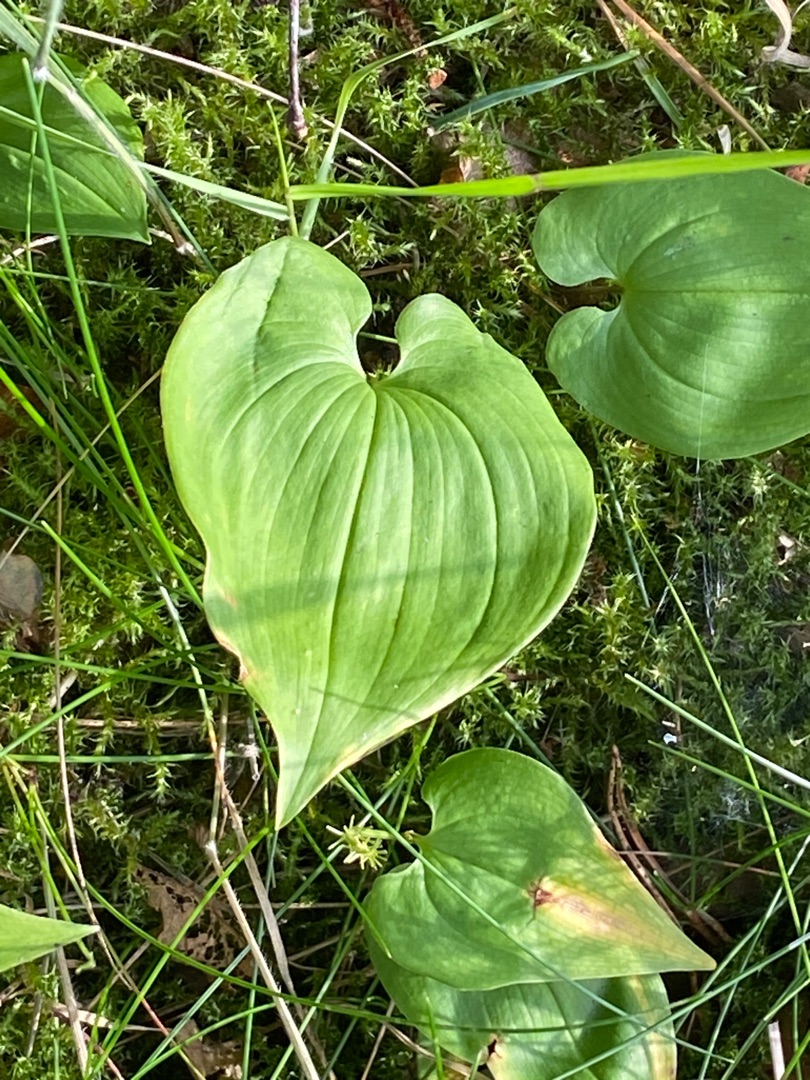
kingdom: Plantae
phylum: Tracheophyta
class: Liliopsida
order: Asparagales
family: Asparagaceae
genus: Maianthemum
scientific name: Maianthemum bifolium
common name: Majblomst
